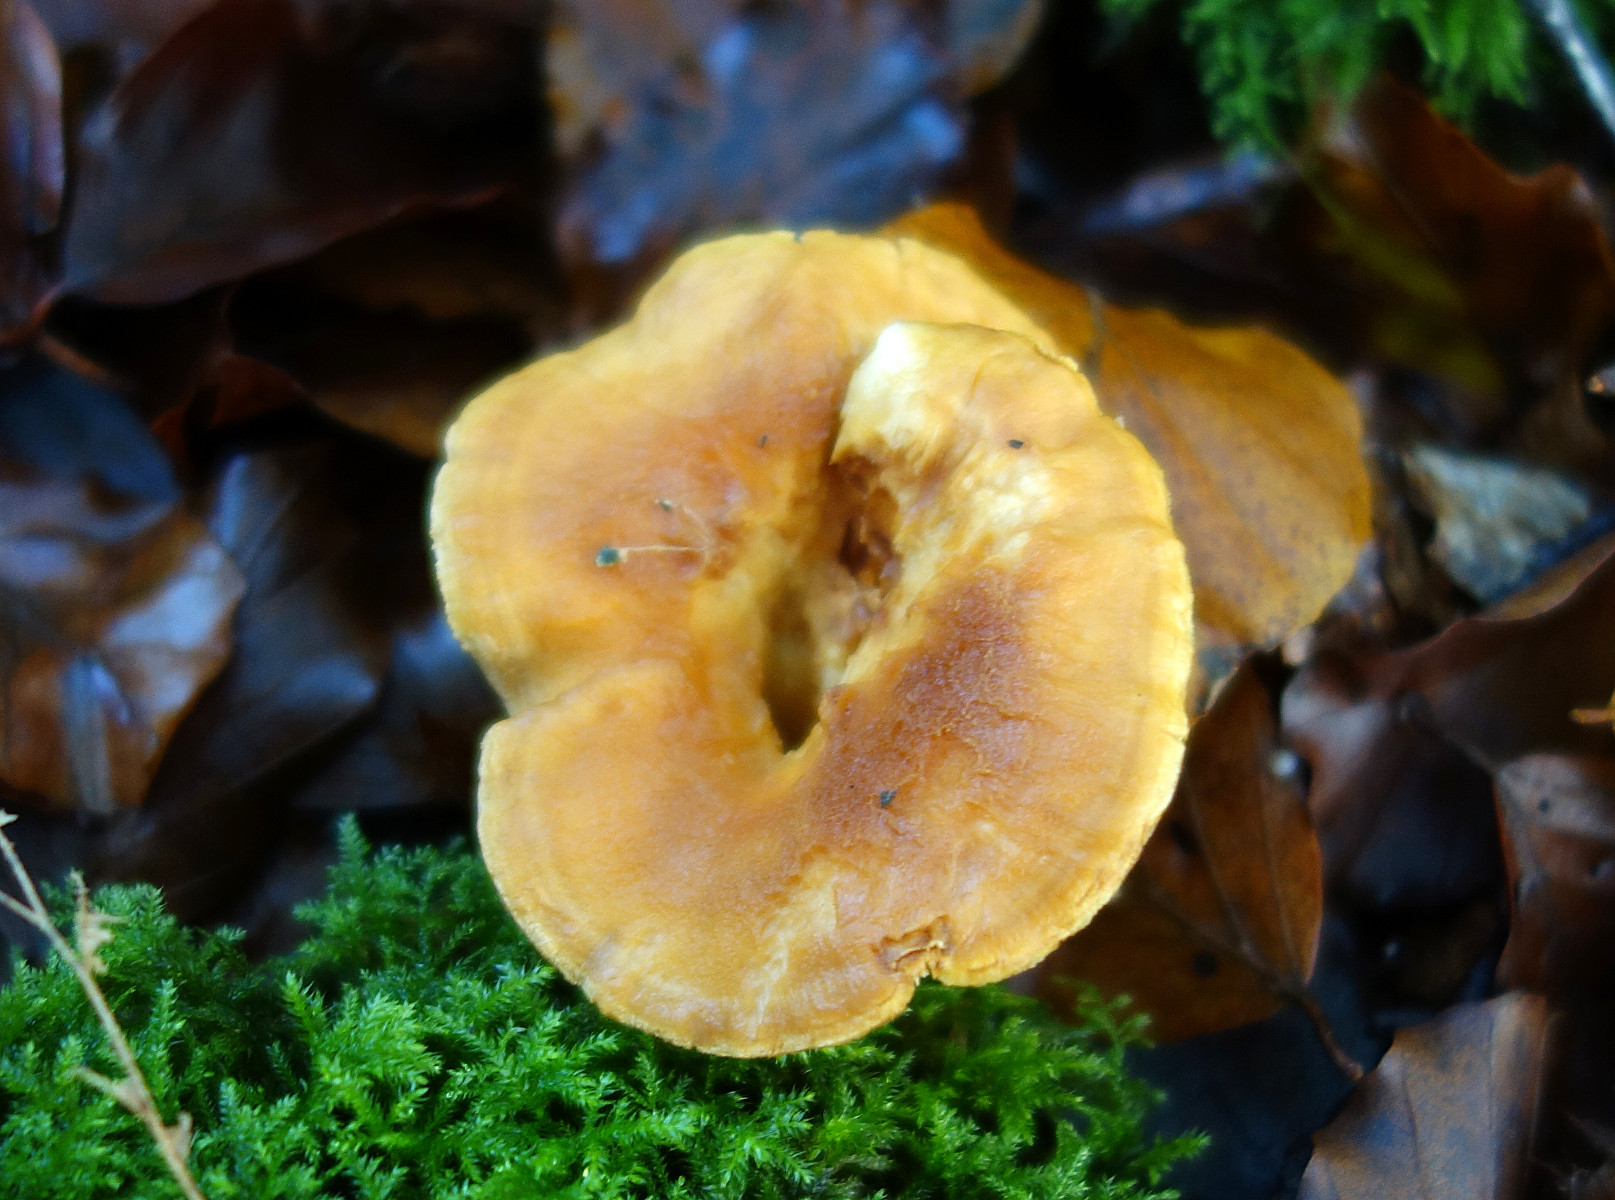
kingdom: Fungi
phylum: Basidiomycota
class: Agaricomycetes
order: Cantharellales
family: Hydnaceae
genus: Hydnum
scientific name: Hydnum rufescens
